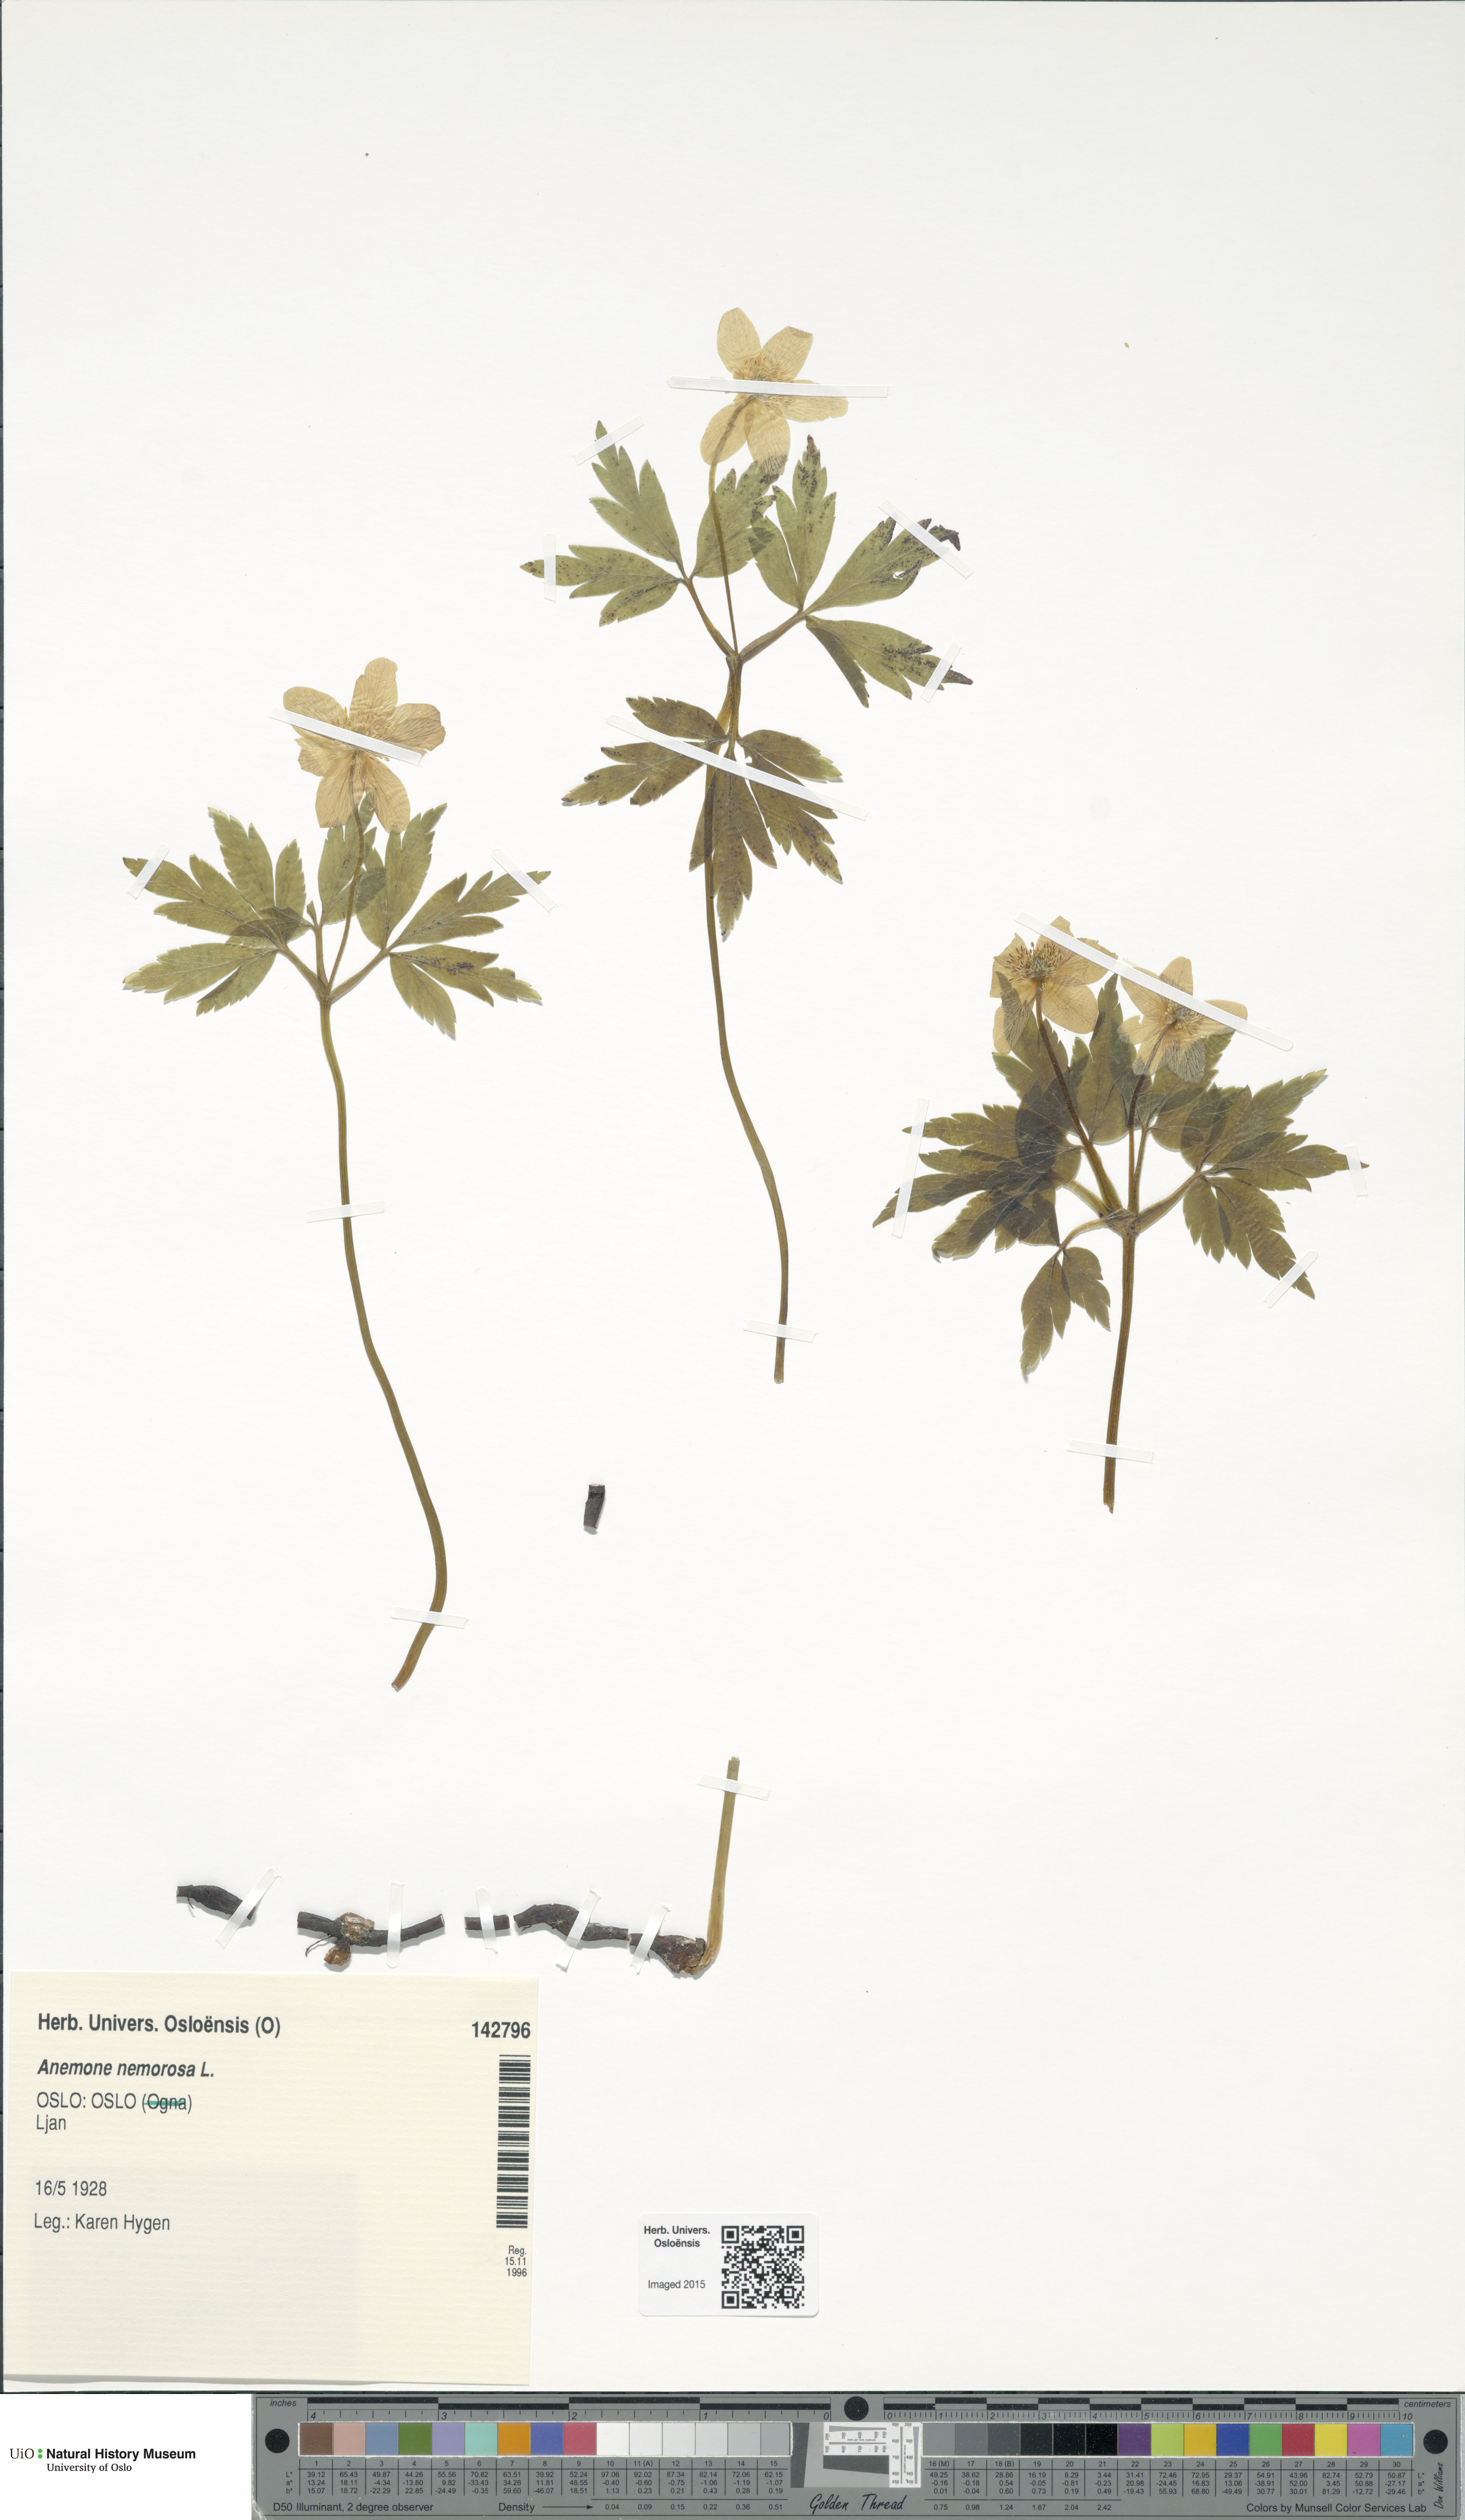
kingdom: Plantae
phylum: Tracheophyta
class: Magnoliopsida
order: Ranunculales
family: Ranunculaceae
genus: Anemone
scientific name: Anemone nemorosa
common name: Wood anemone
